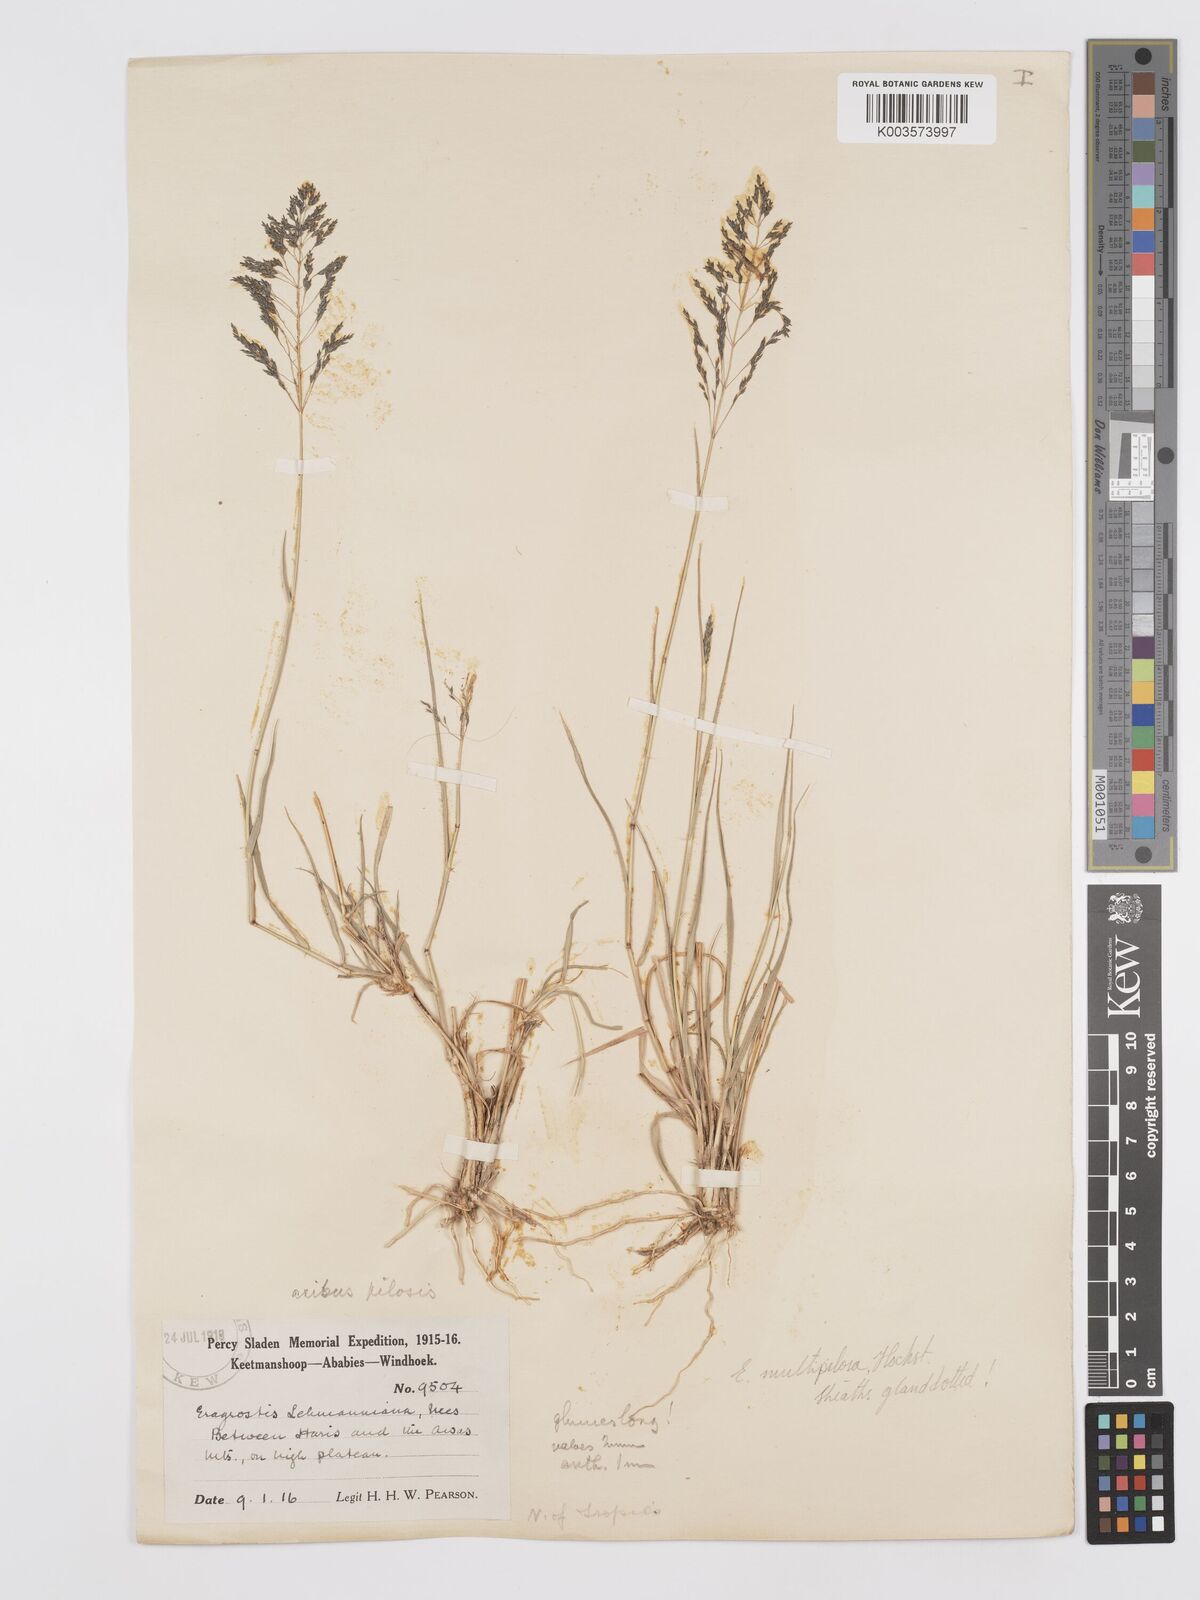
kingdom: Plantae
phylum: Tracheophyta
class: Liliopsida
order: Poales
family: Poaceae
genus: Eragrostis
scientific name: Eragrostis cylindriflora
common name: Cylinderflower lovegrass
